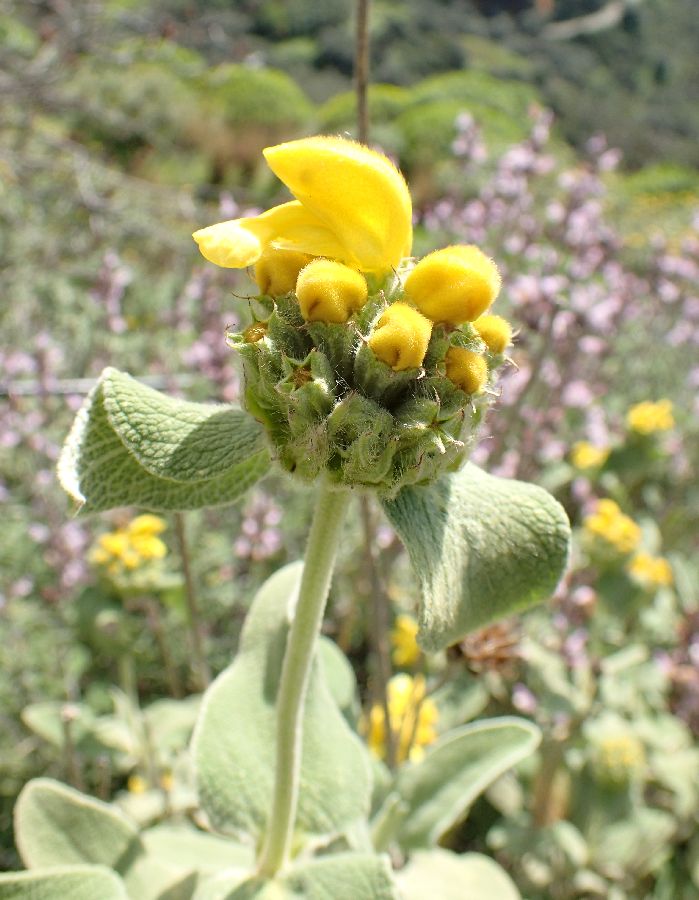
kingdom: Plantae
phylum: Tracheophyta
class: Magnoliopsida
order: Lamiales
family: Lamiaceae
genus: Phlomis
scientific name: Phlomis fruticosa
